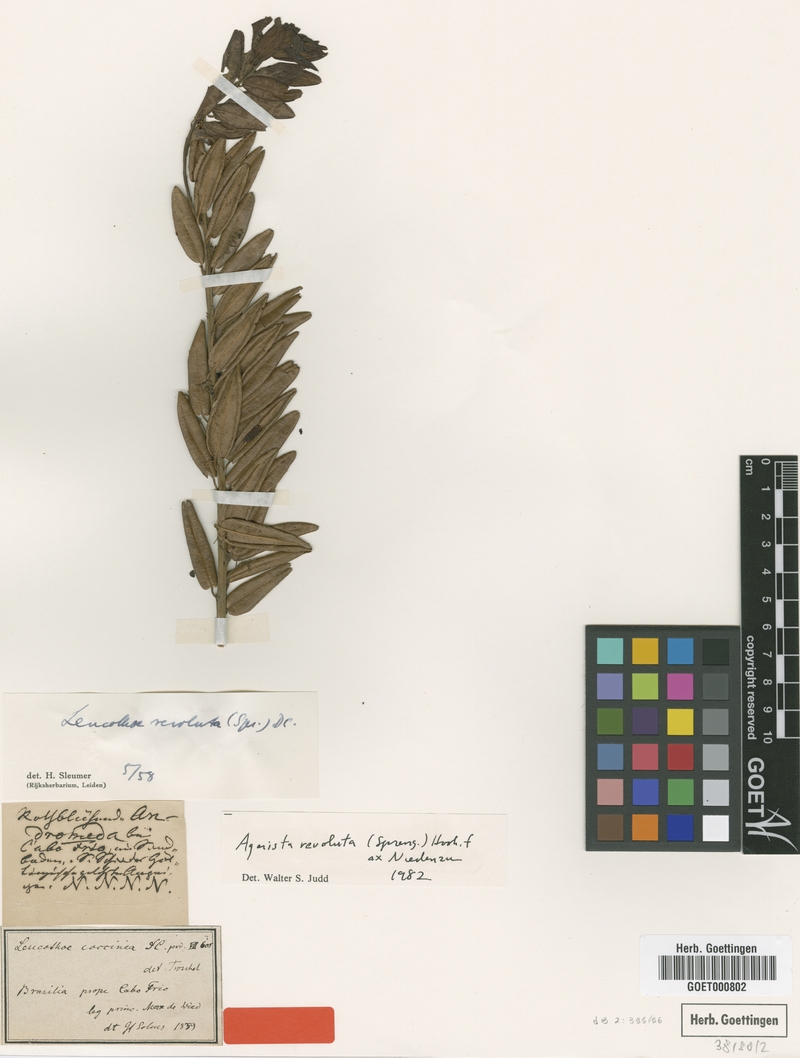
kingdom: Plantae
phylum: Tracheophyta
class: Magnoliopsida
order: Ericales
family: Ericaceae
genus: Agarista
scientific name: Agarista revoluta
